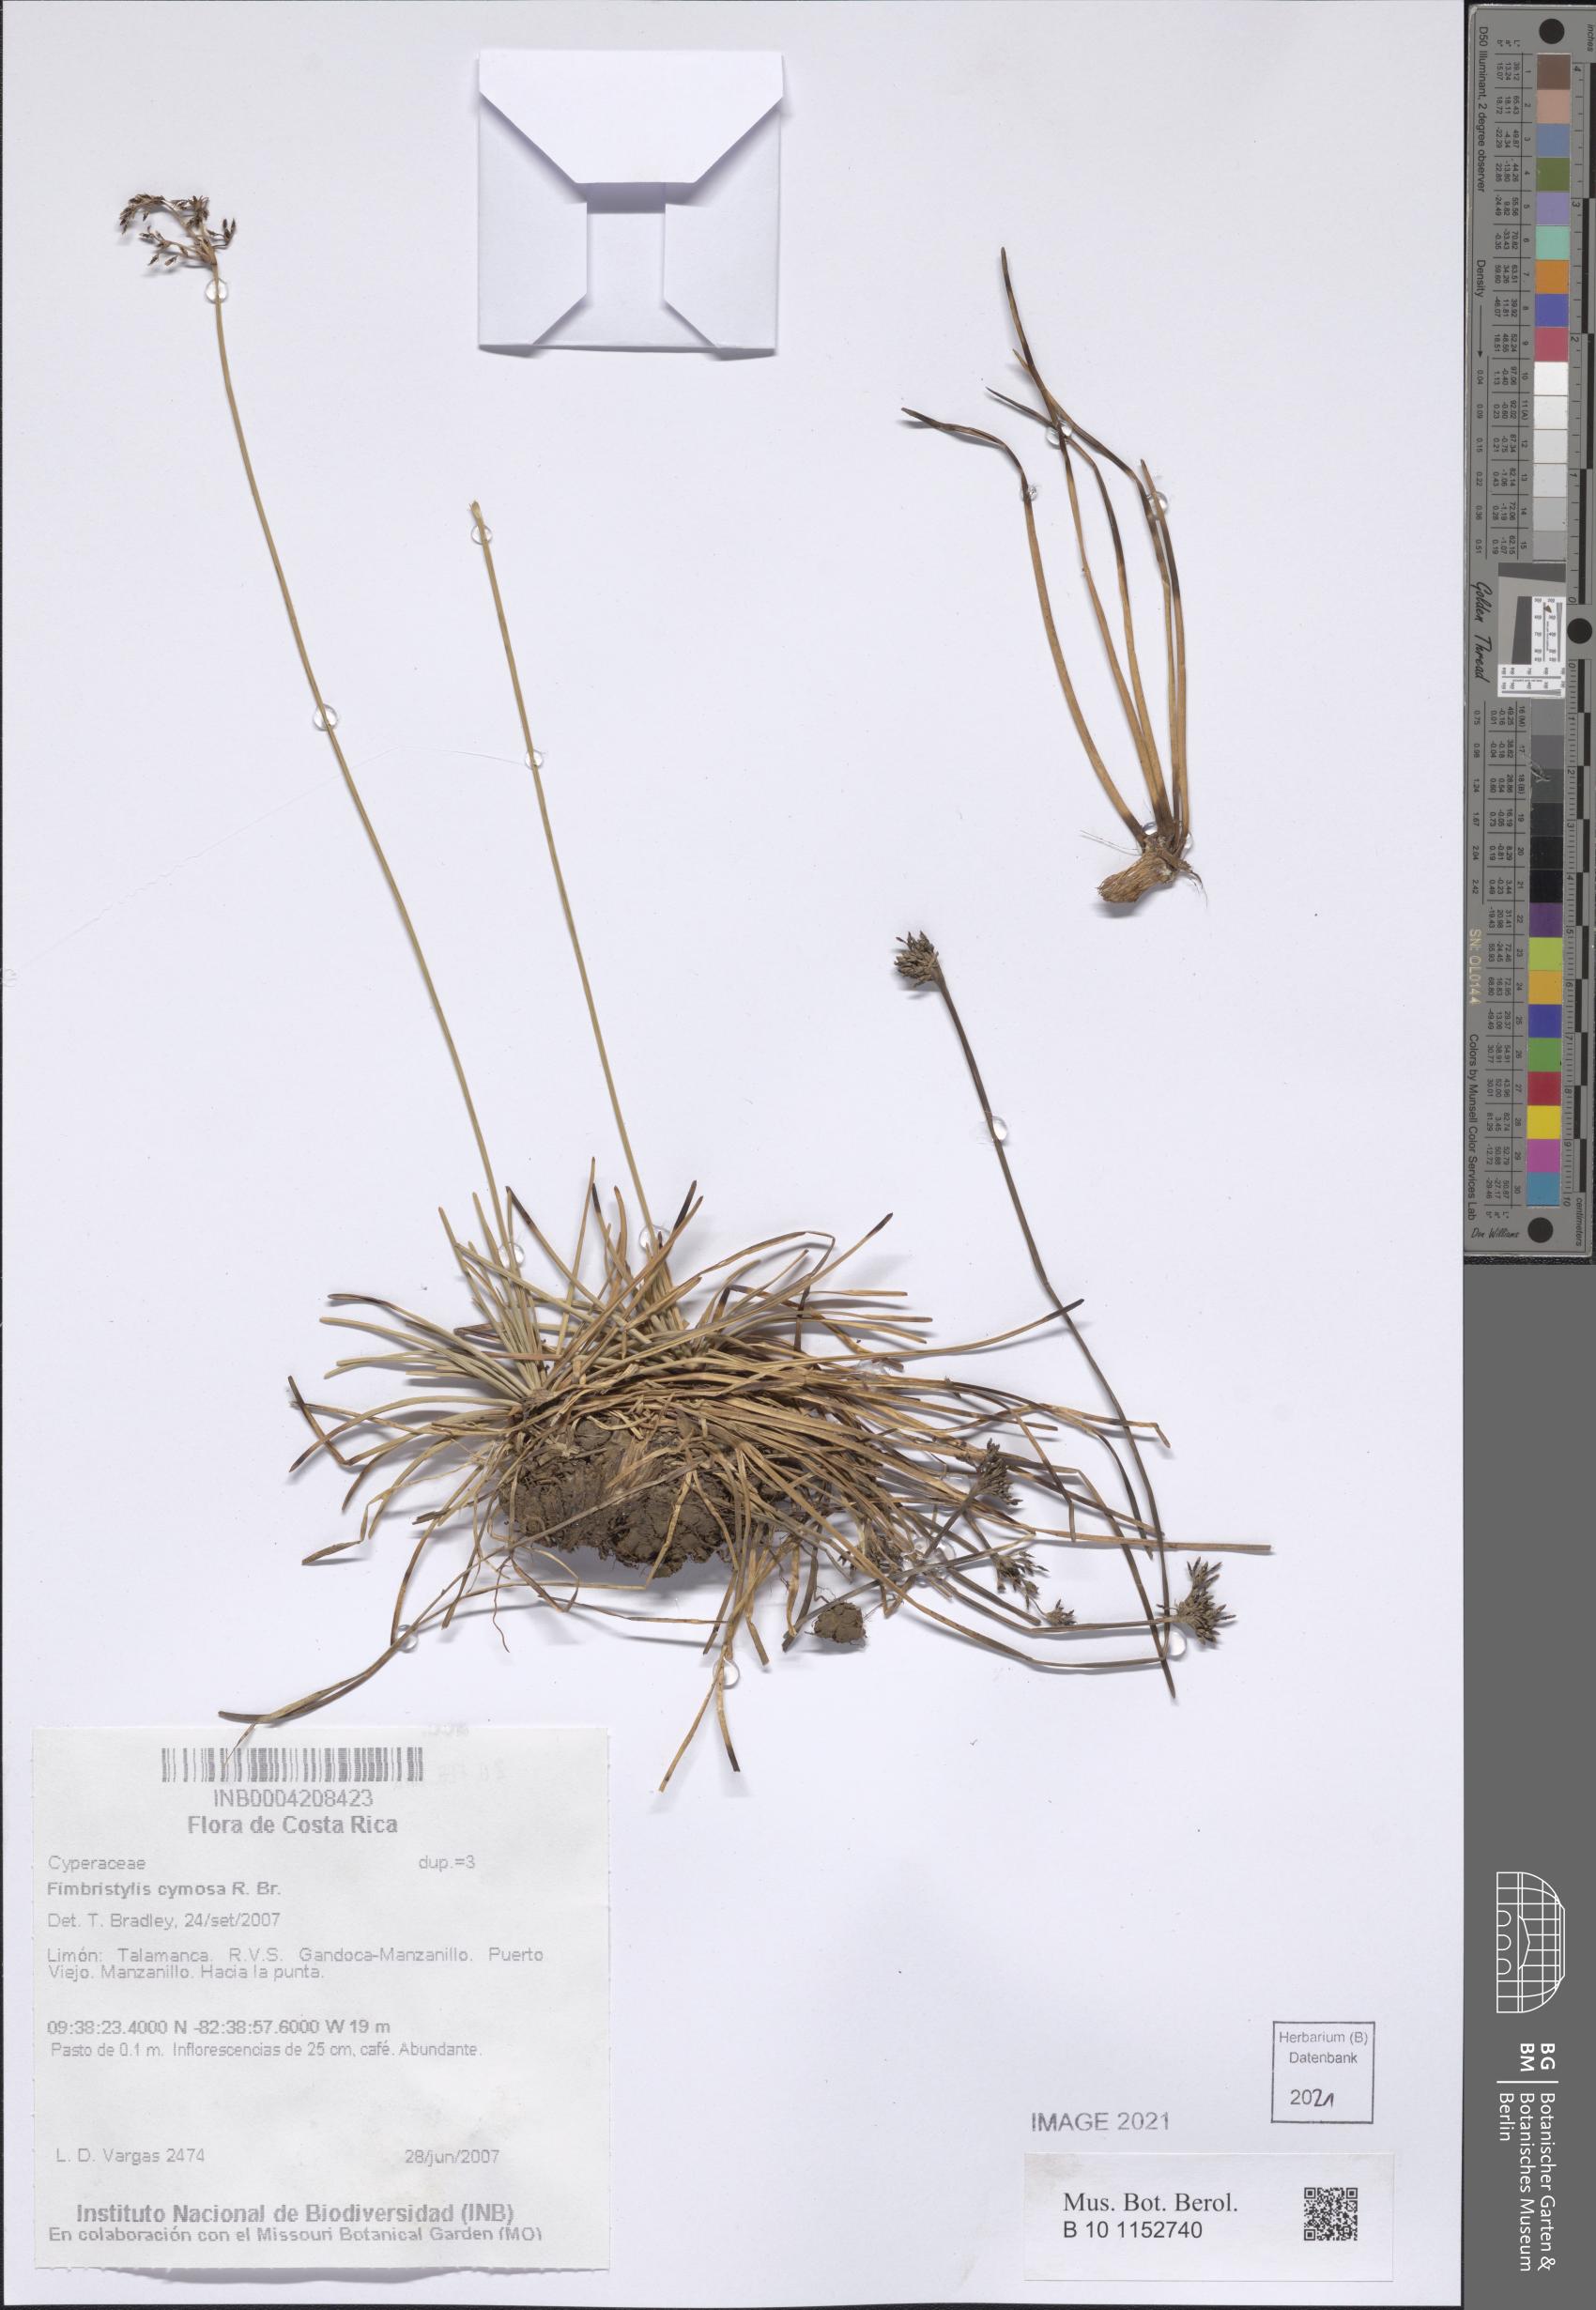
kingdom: Plantae
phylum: Tracheophyta
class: Liliopsida
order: Poales
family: Cyperaceae
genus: Fimbristylis
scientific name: Fimbristylis cymosa
